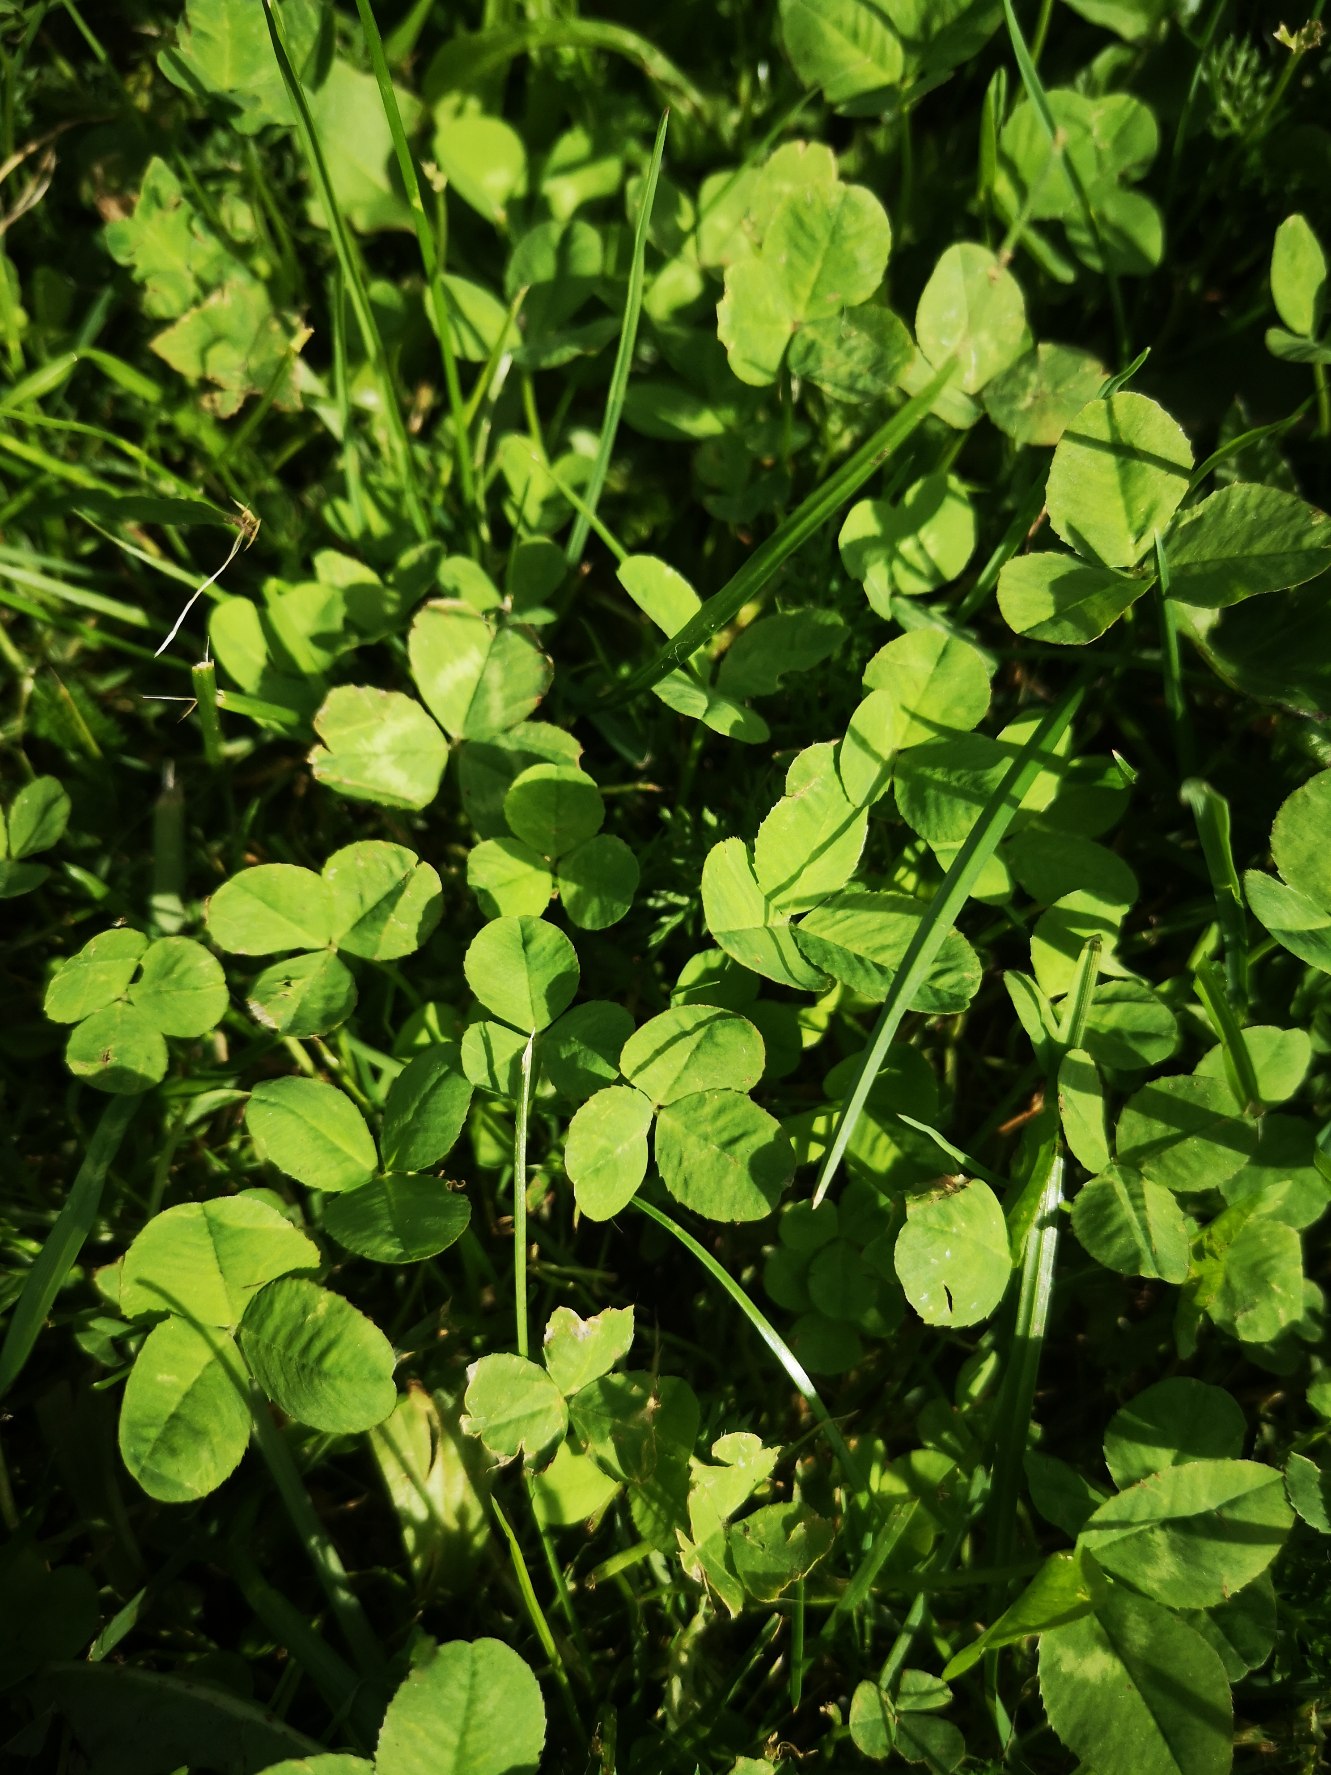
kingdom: Plantae
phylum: Tracheophyta
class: Magnoliopsida
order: Fabales
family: Fabaceae
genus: Trifolium
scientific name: Trifolium repens
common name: Hvid-kløver
